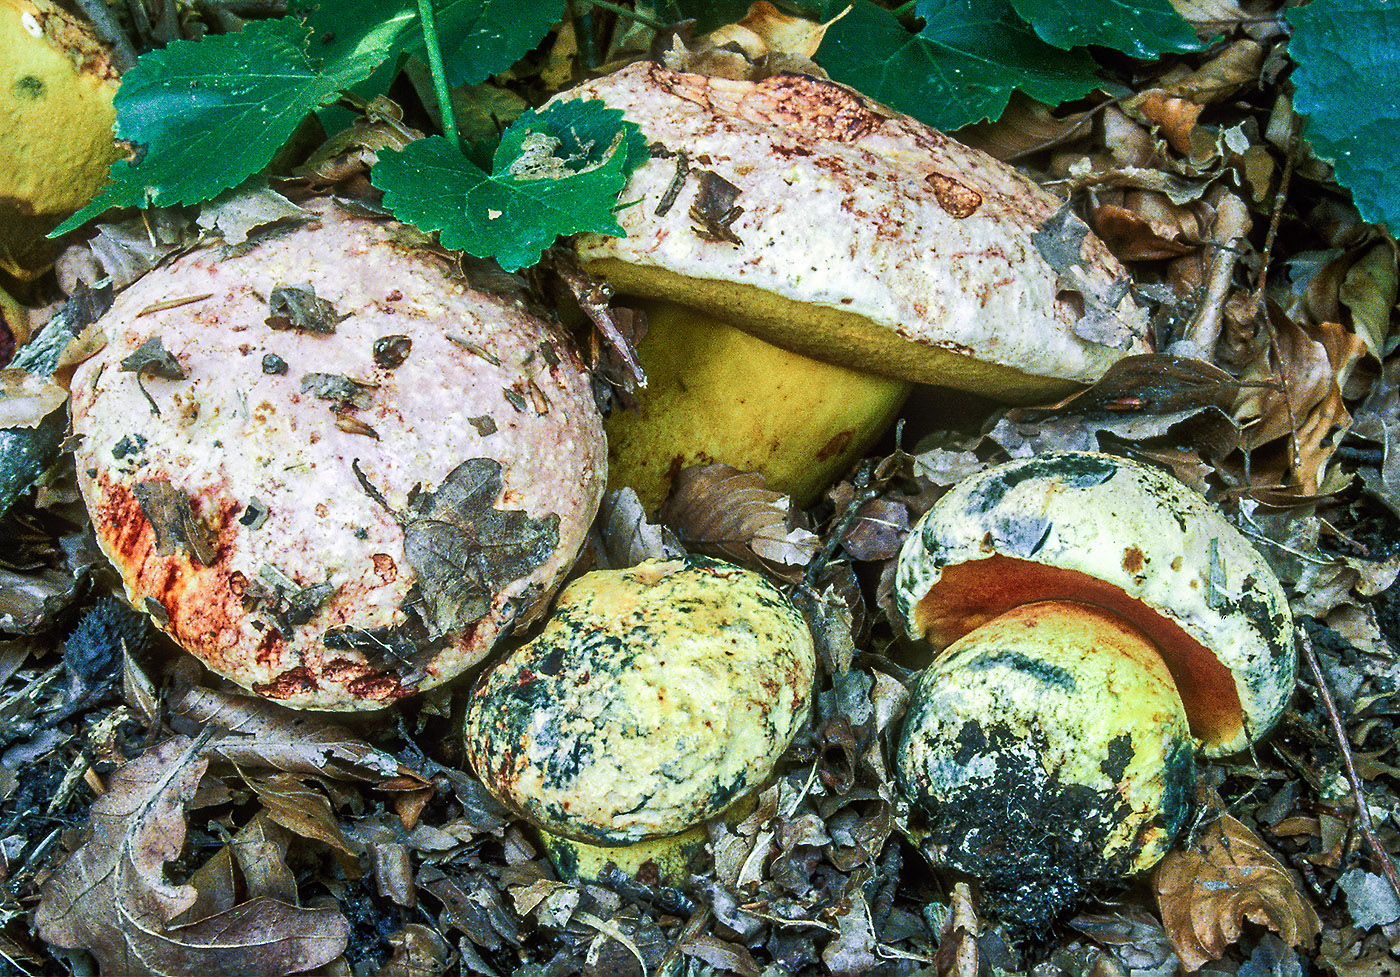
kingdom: Fungi
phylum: Basidiomycota
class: Agaricomycetes
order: Boletales
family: Boletaceae
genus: Imperator
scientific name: Imperator rhodopurpureus
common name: purpur-rørhat
